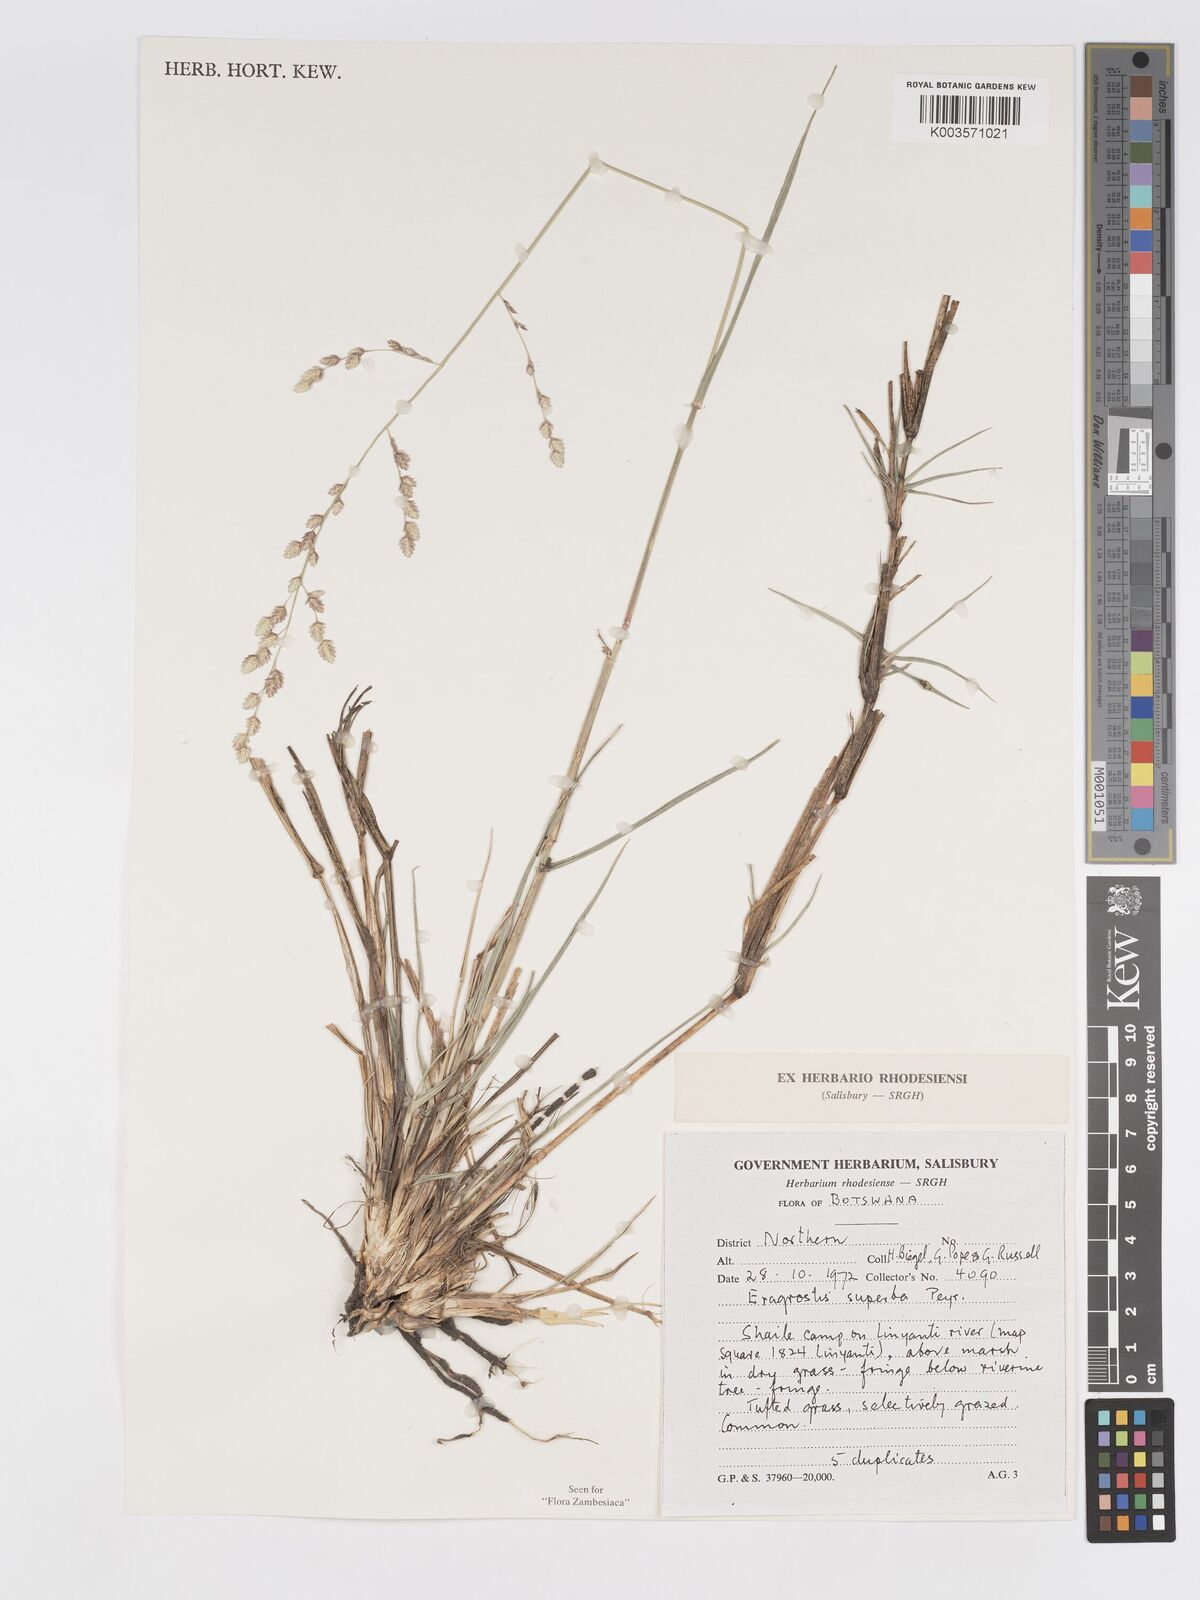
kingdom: Plantae
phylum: Tracheophyta
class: Liliopsida
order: Poales
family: Poaceae
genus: Eragrostis
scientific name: Eragrostis superba
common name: Wilman lovegrass
